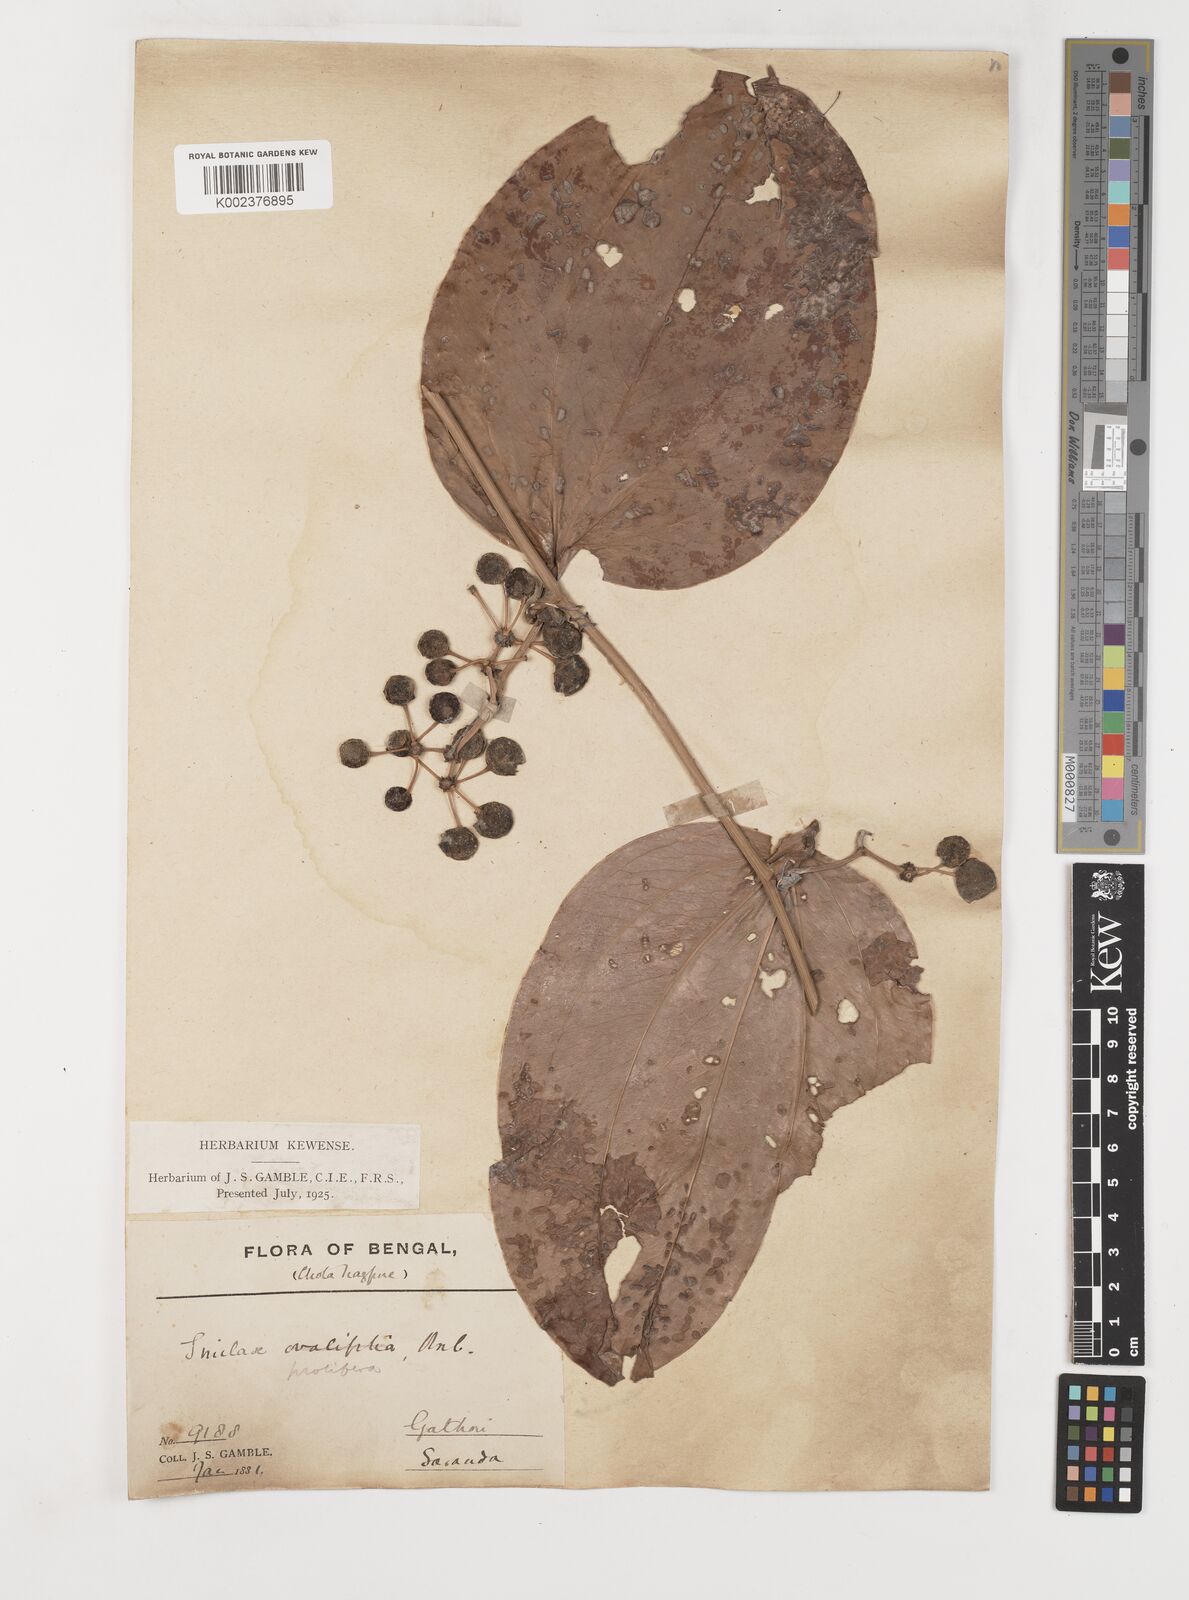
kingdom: Plantae
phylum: Tracheophyta
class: Liliopsida
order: Liliales
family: Smilacaceae
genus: Smilax
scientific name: Smilax prolifera
